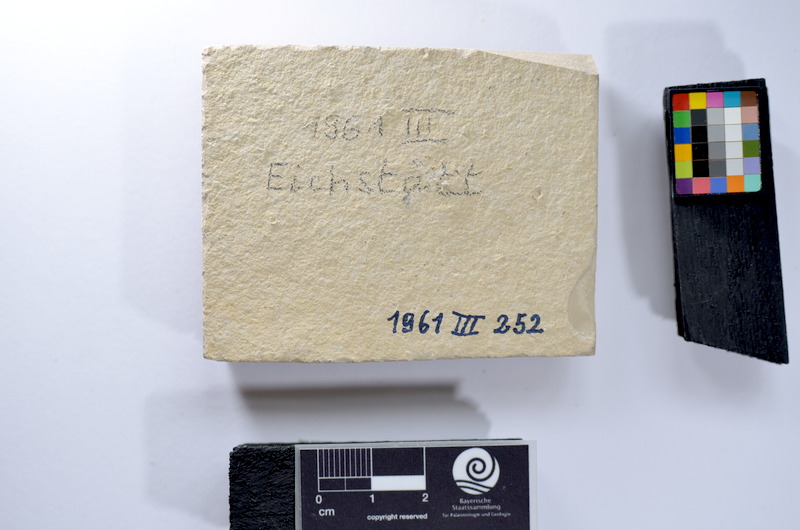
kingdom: Animalia
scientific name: Animalia
